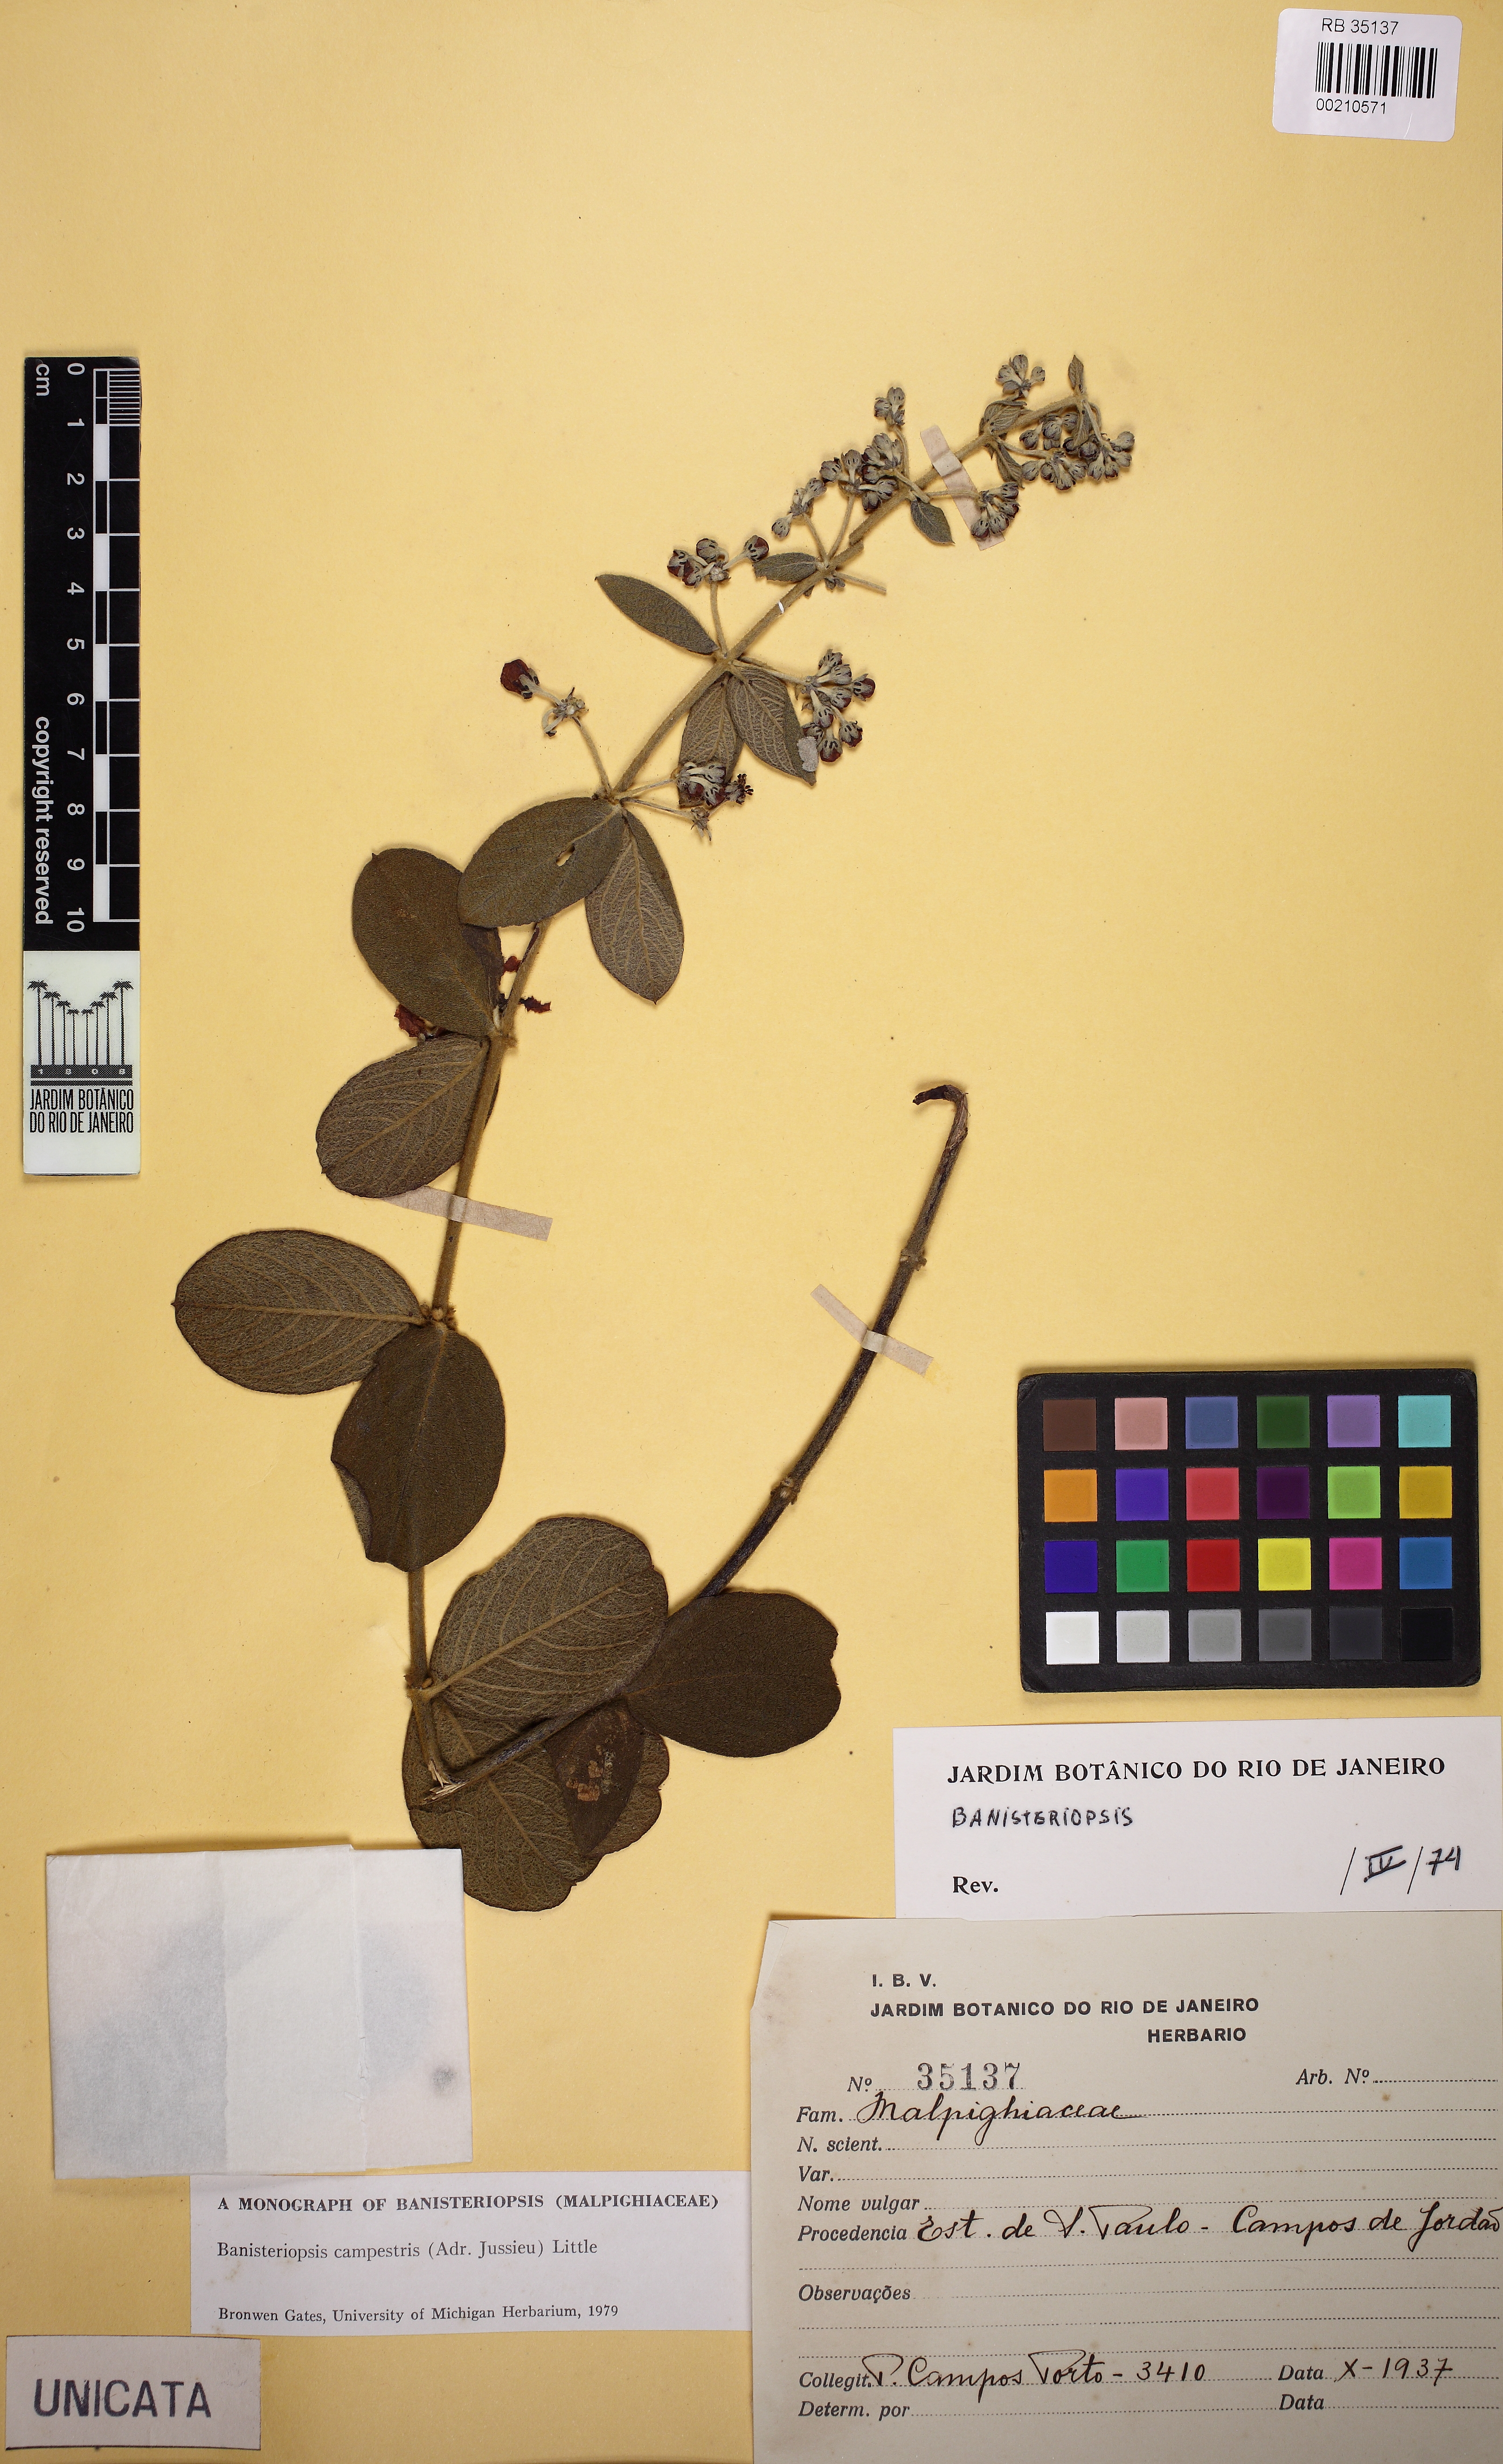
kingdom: Plantae
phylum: Tracheophyta
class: Magnoliopsida
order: Malpighiales
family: Malpighiaceae
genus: Banisteriopsis
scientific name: Banisteriopsis campestris
